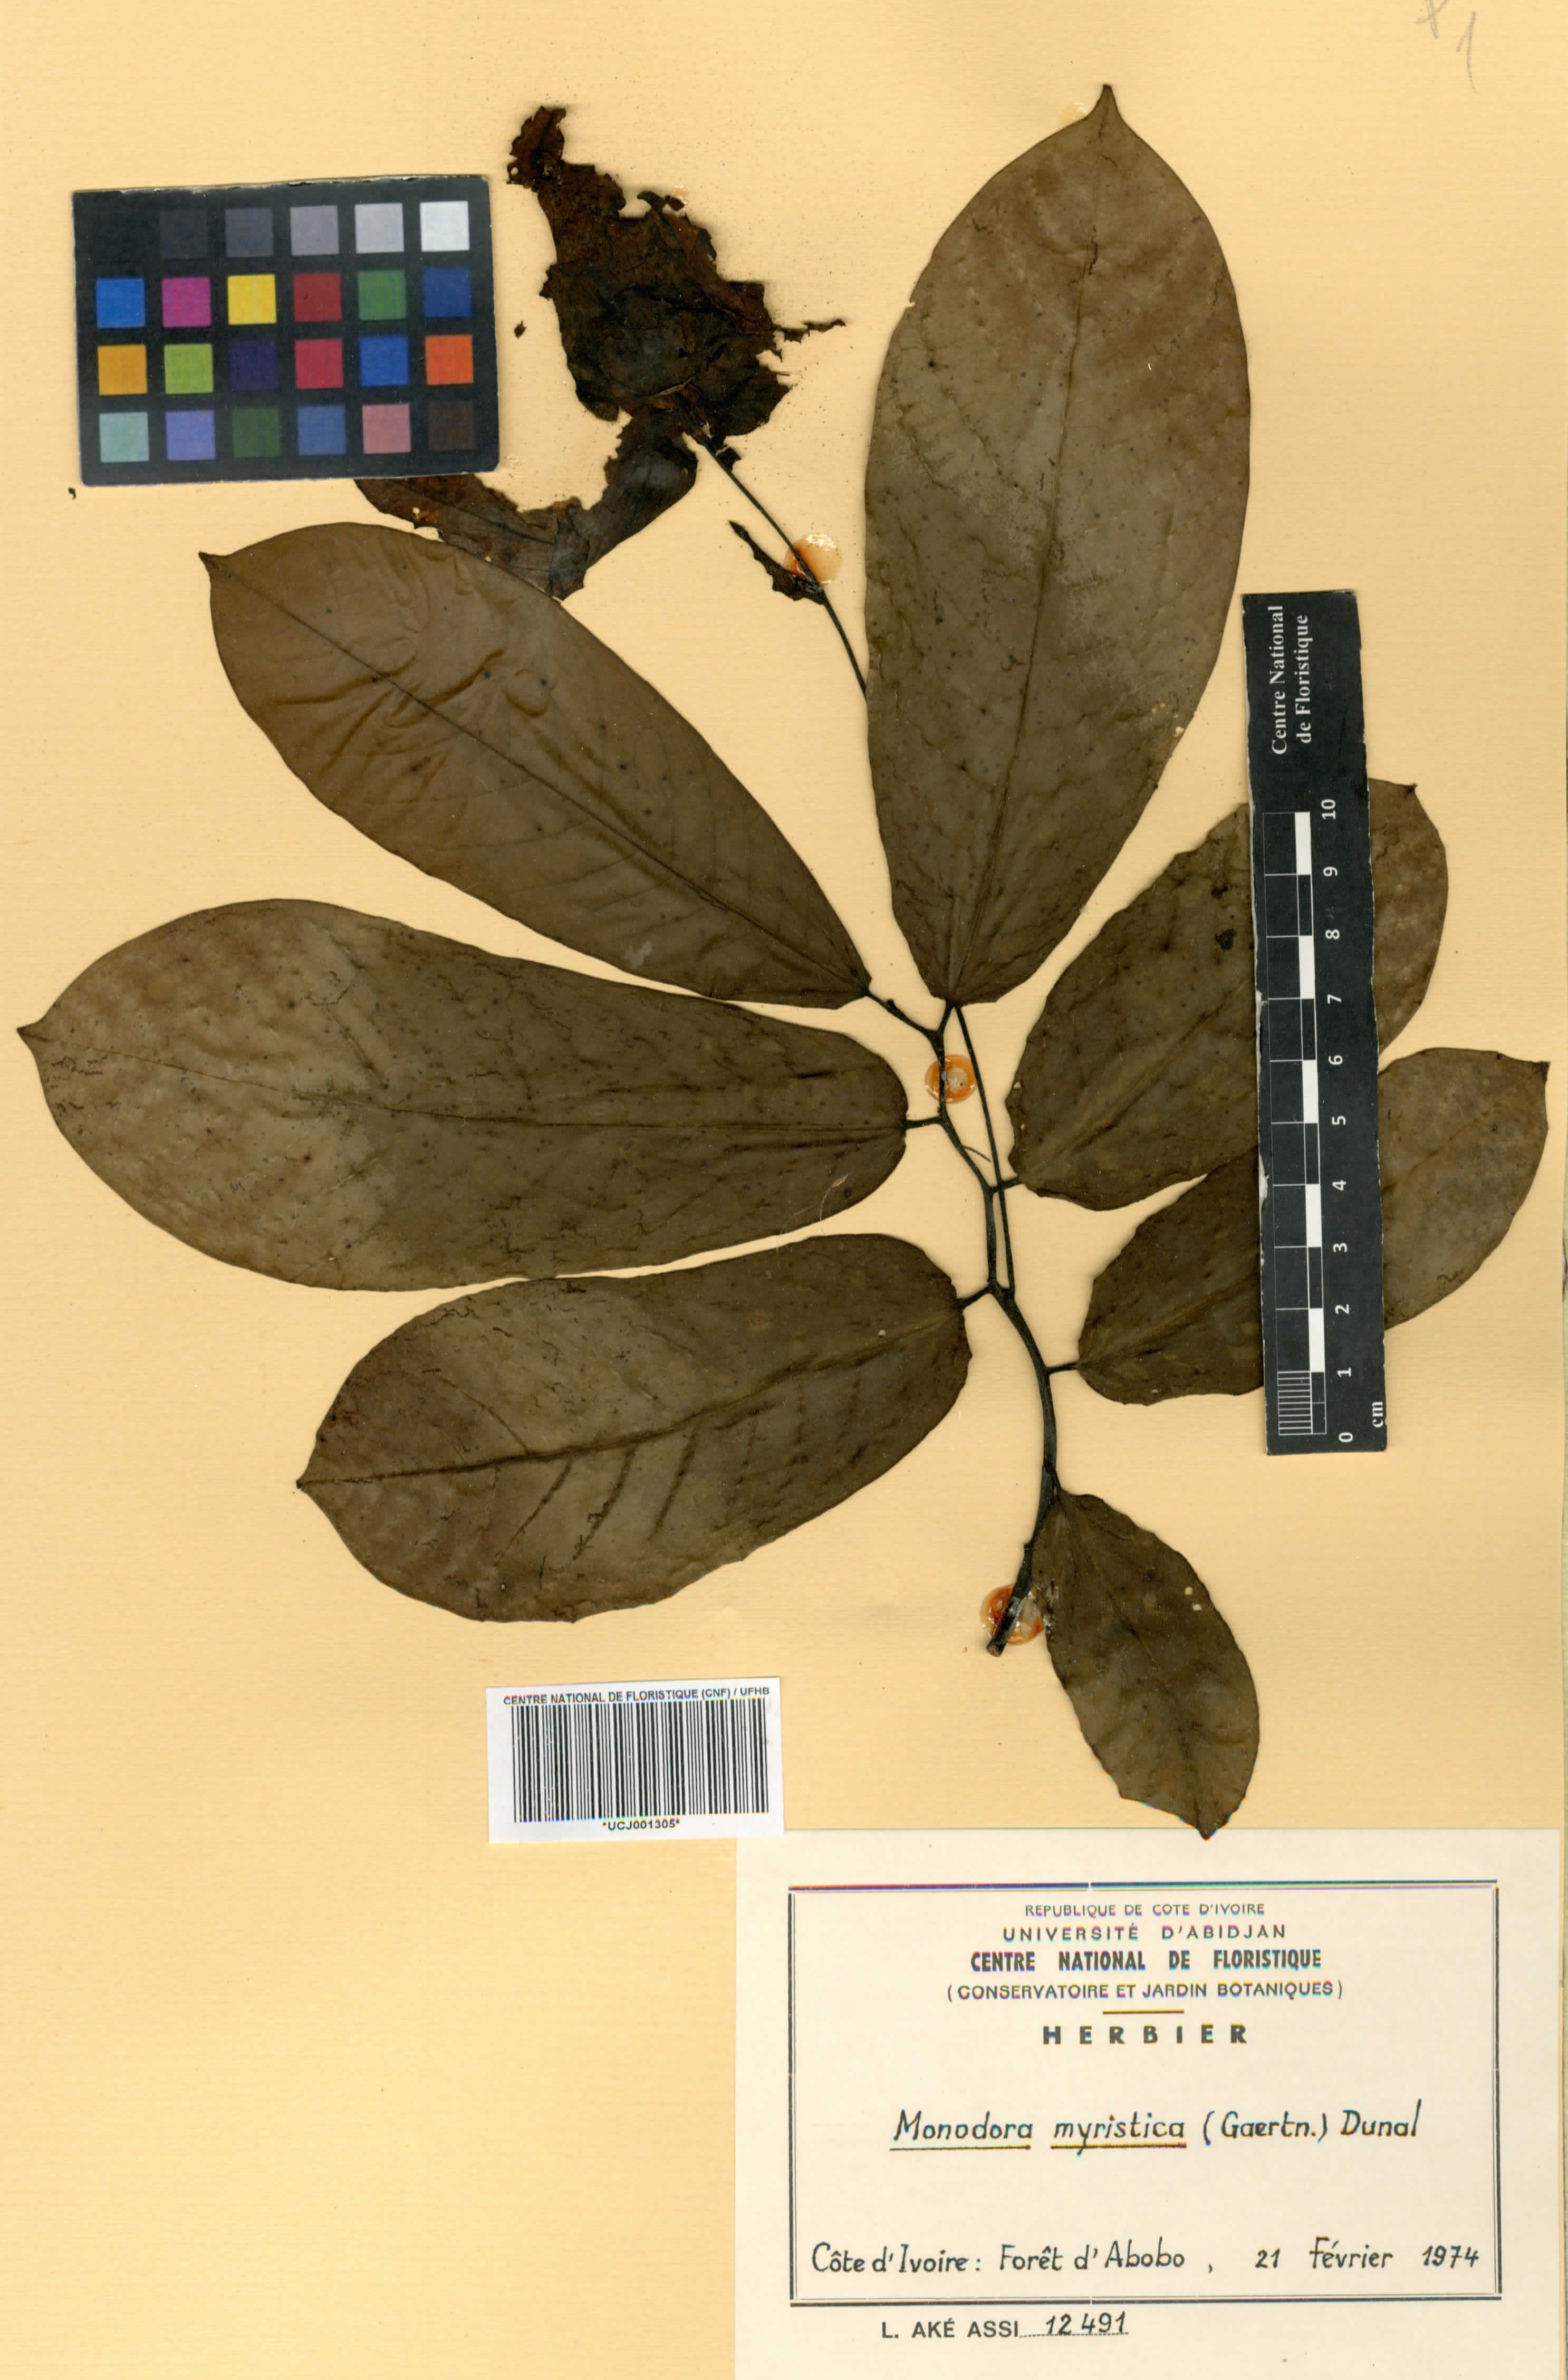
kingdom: Plantae
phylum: Tracheophyta
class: Magnoliopsida
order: Magnoliales
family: Annonaceae
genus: Monodora
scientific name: Monodora myristica
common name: African nutmeg
